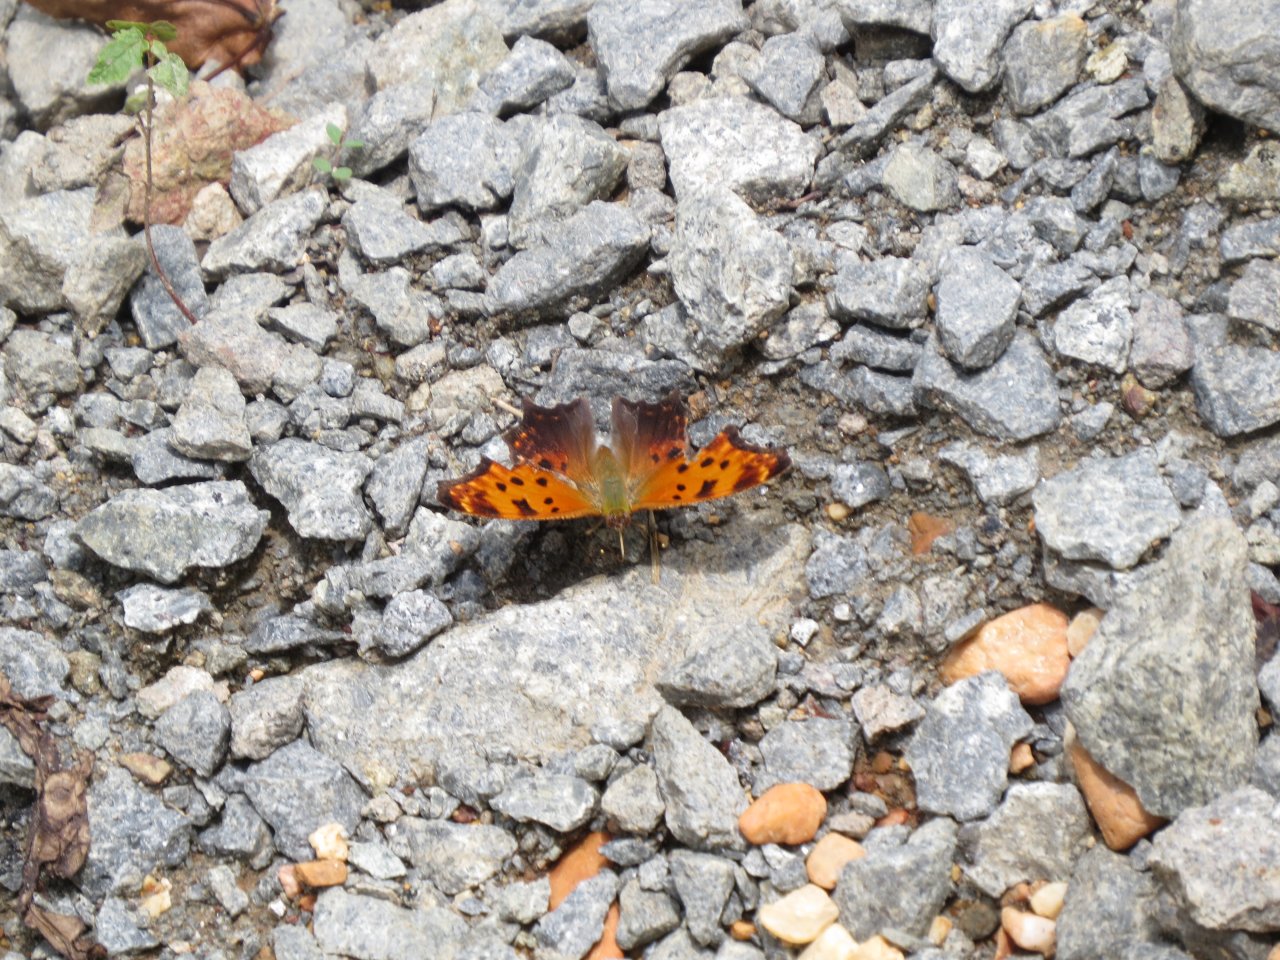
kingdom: Animalia
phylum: Arthropoda
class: Insecta
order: Lepidoptera
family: Nymphalidae
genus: Polygonia
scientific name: Polygonia comma
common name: Eastern Comma
